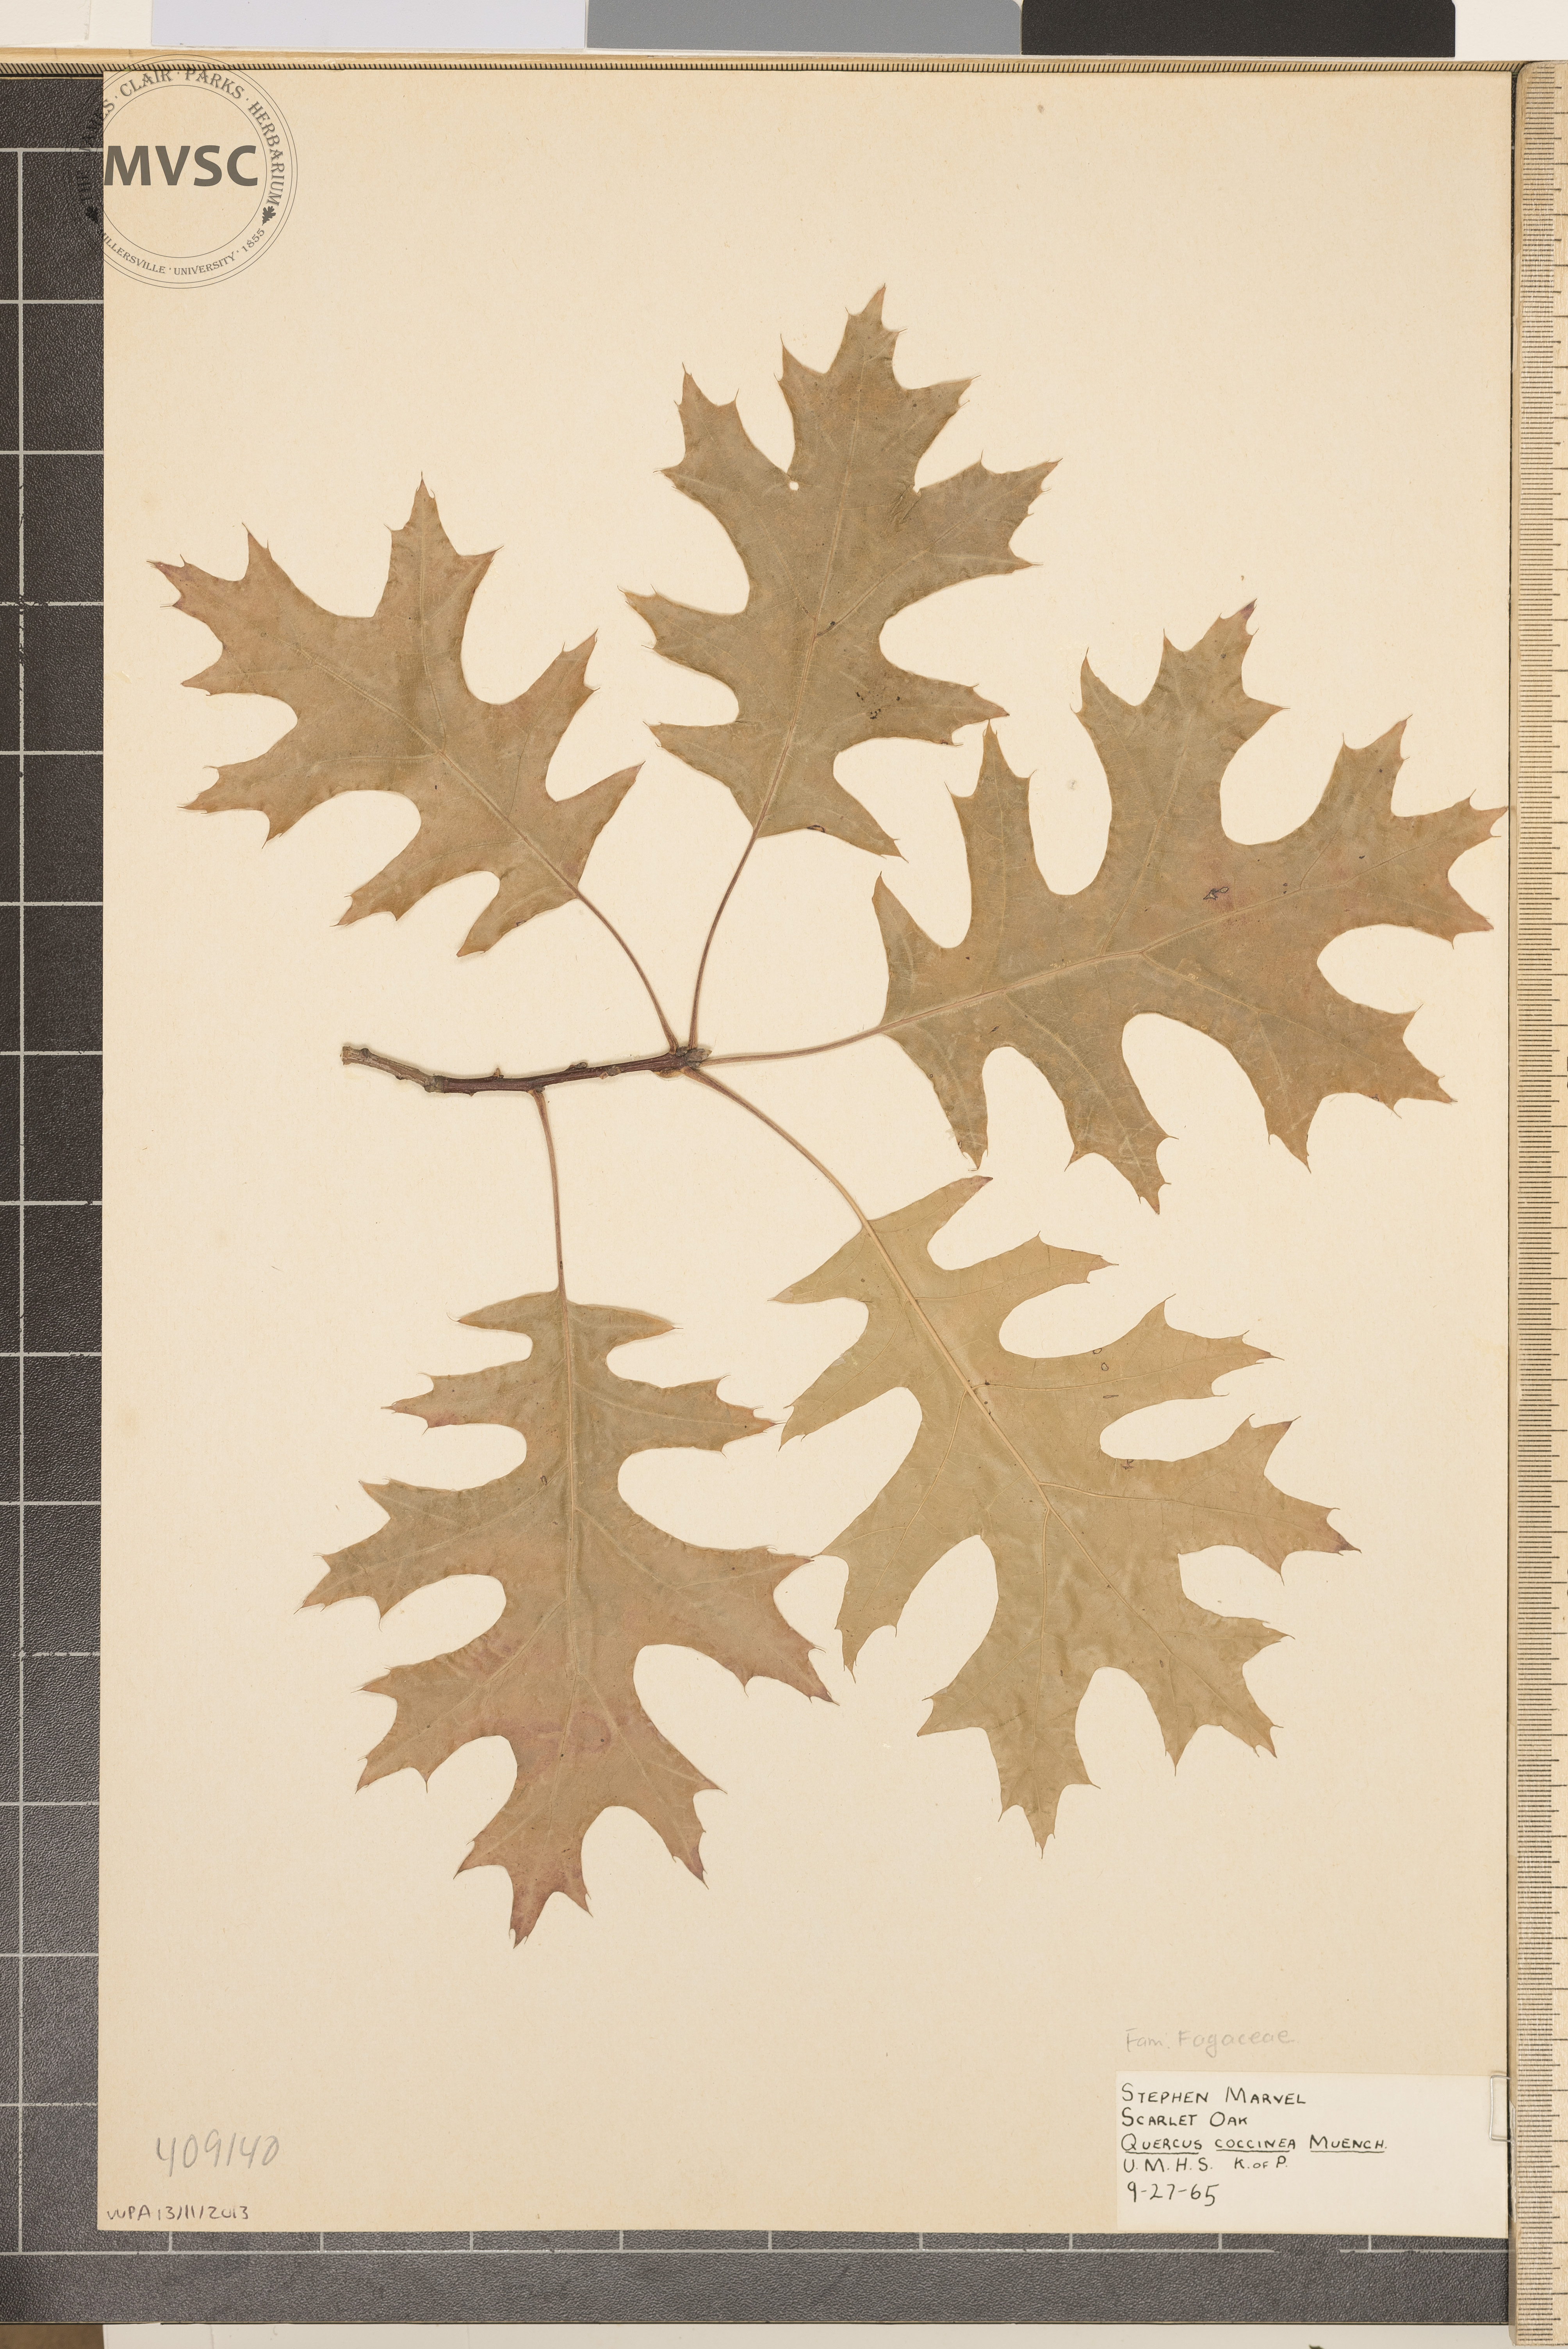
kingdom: Plantae
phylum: Tracheophyta
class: Magnoliopsida
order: Fagales
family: Fagaceae
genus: Quercus
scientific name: Quercus coccinea
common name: scarlet oak
